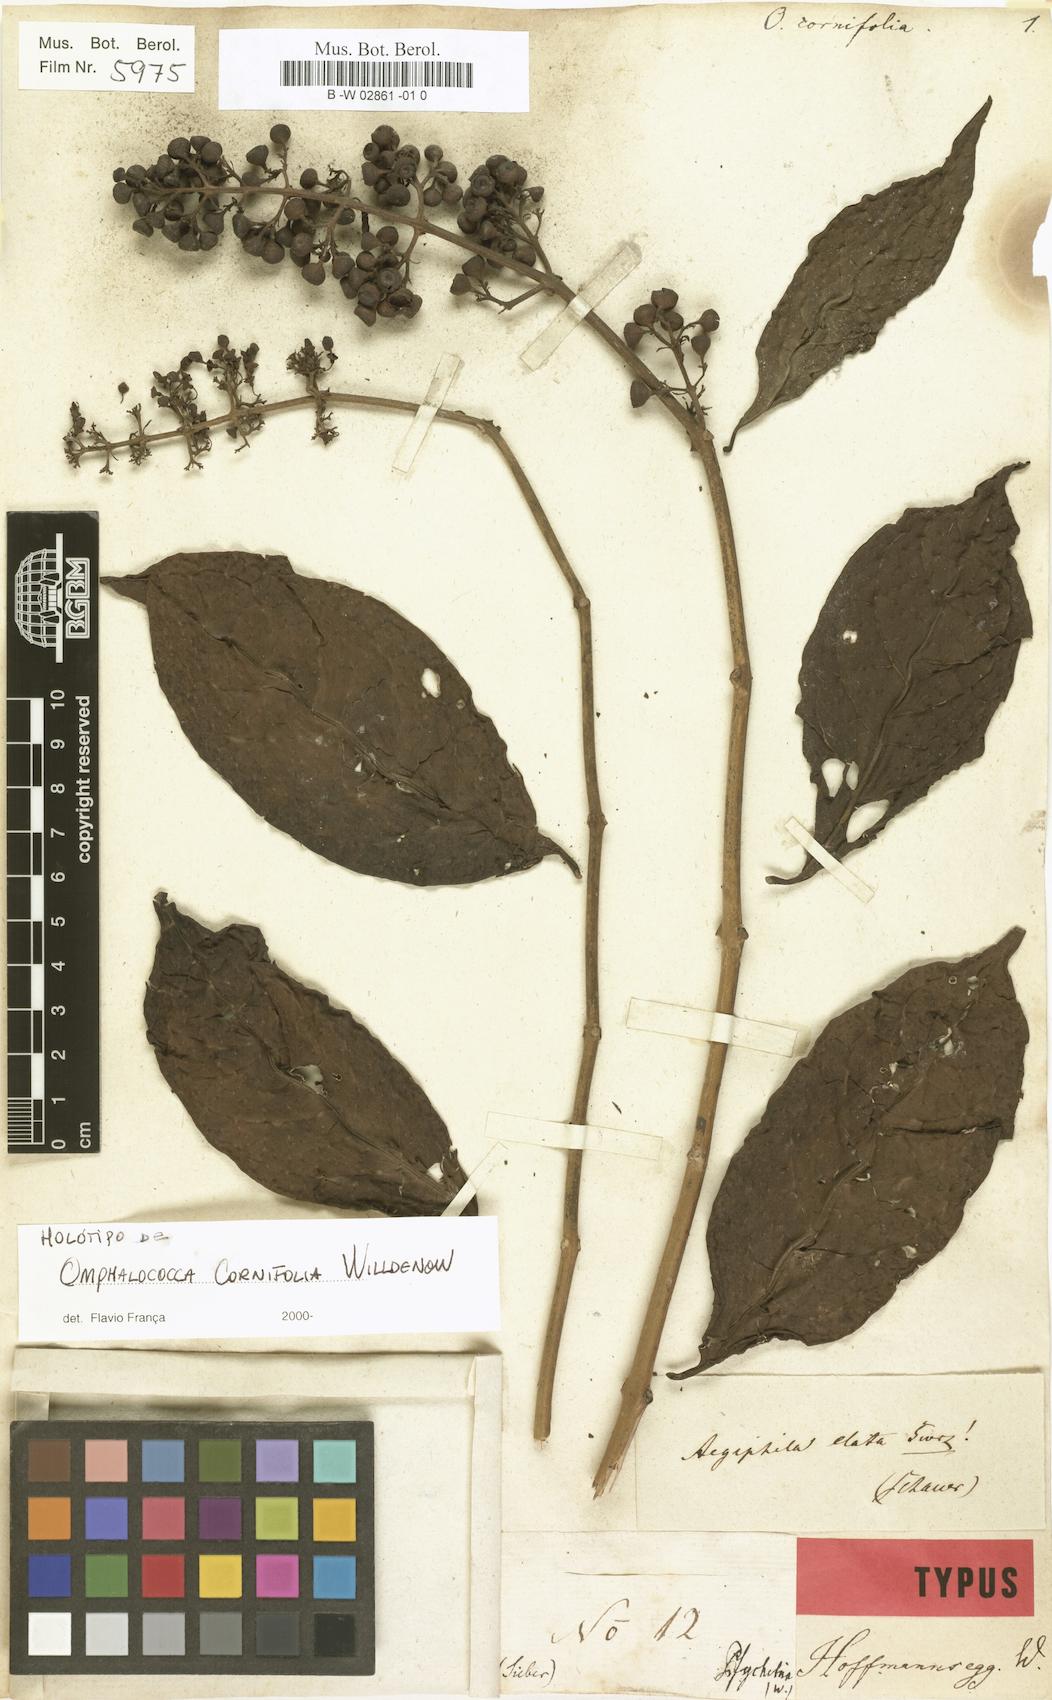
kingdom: Plantae
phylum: Tracheophyta
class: Magnoliopsida
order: Lamiales
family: Lamiaceae
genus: Aegiphila
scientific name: Aegiphila elata
